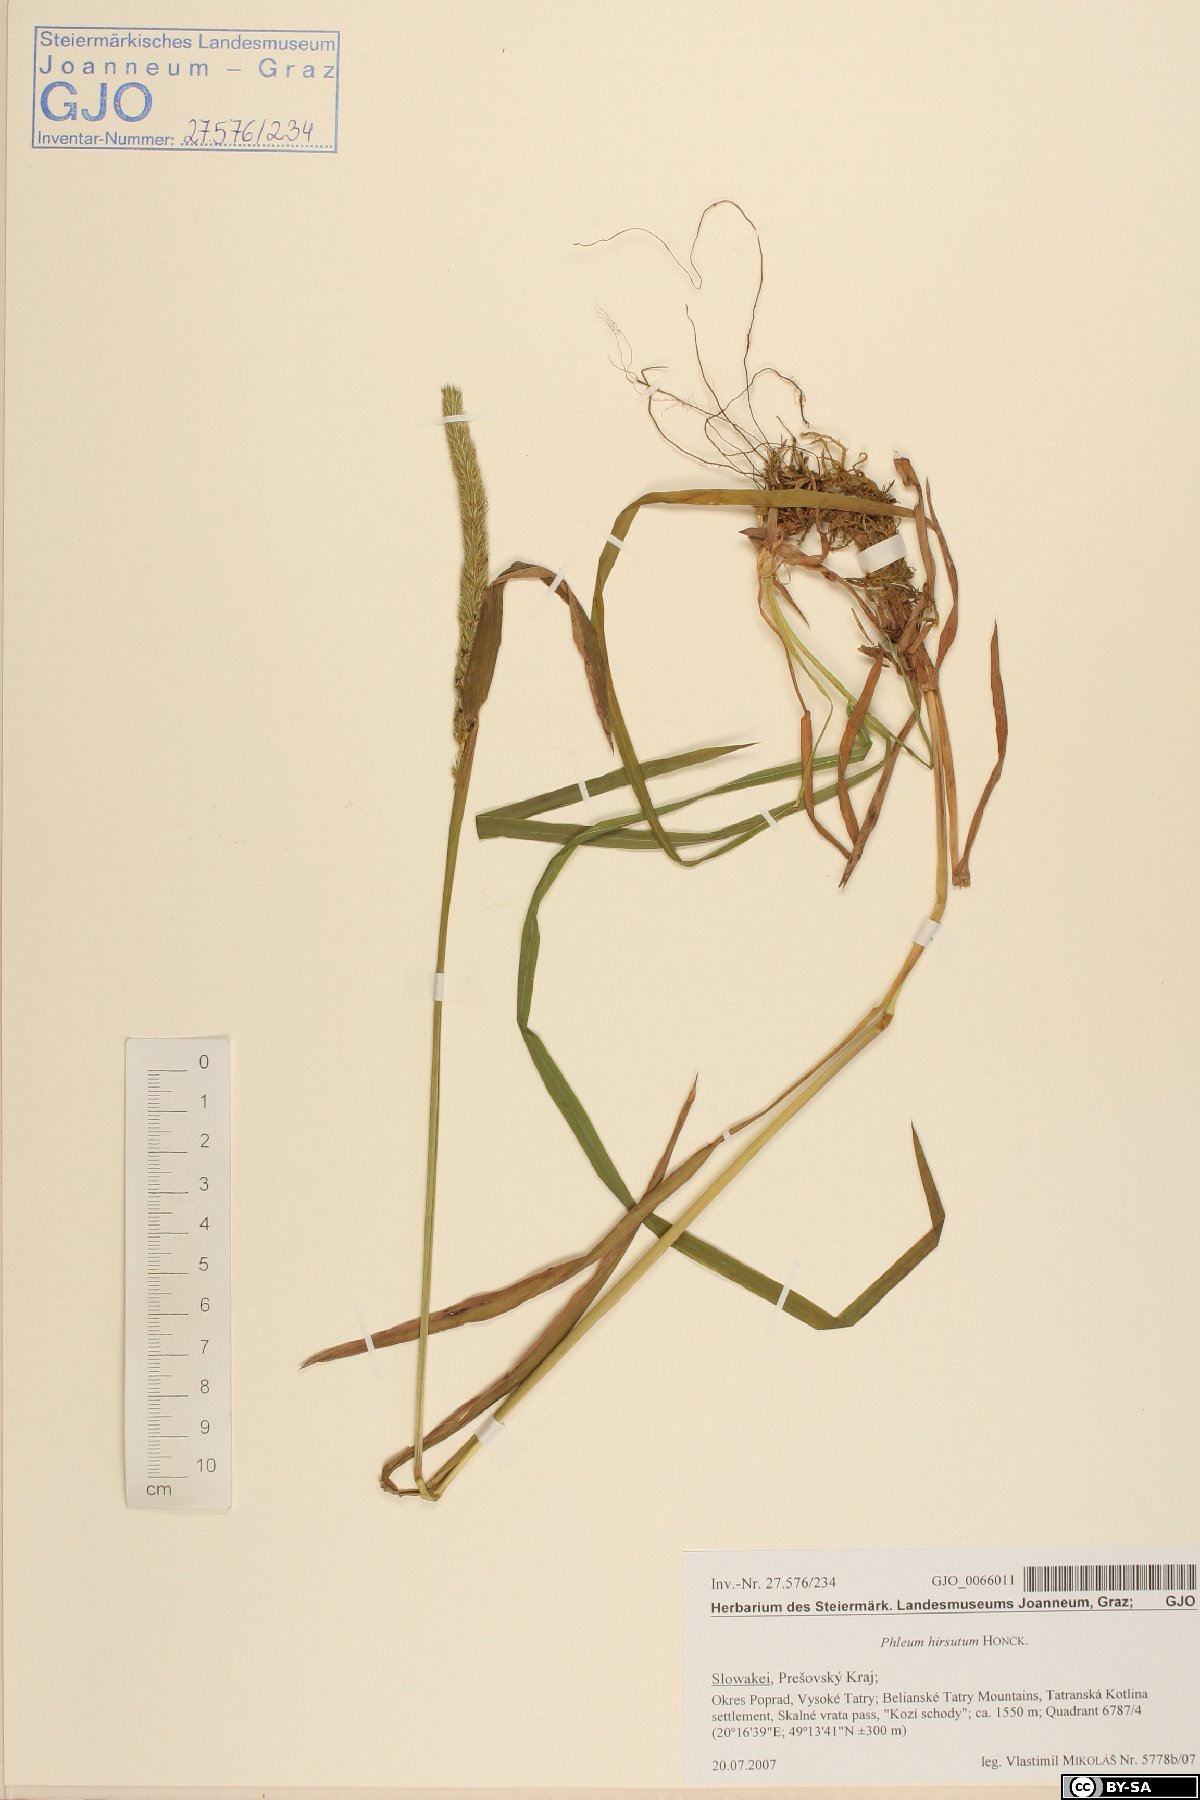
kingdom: Plantae
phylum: Tracheophyta
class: Liliopsida
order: Poales
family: Poaceae
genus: Phleum
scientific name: Phleum hirsutum
